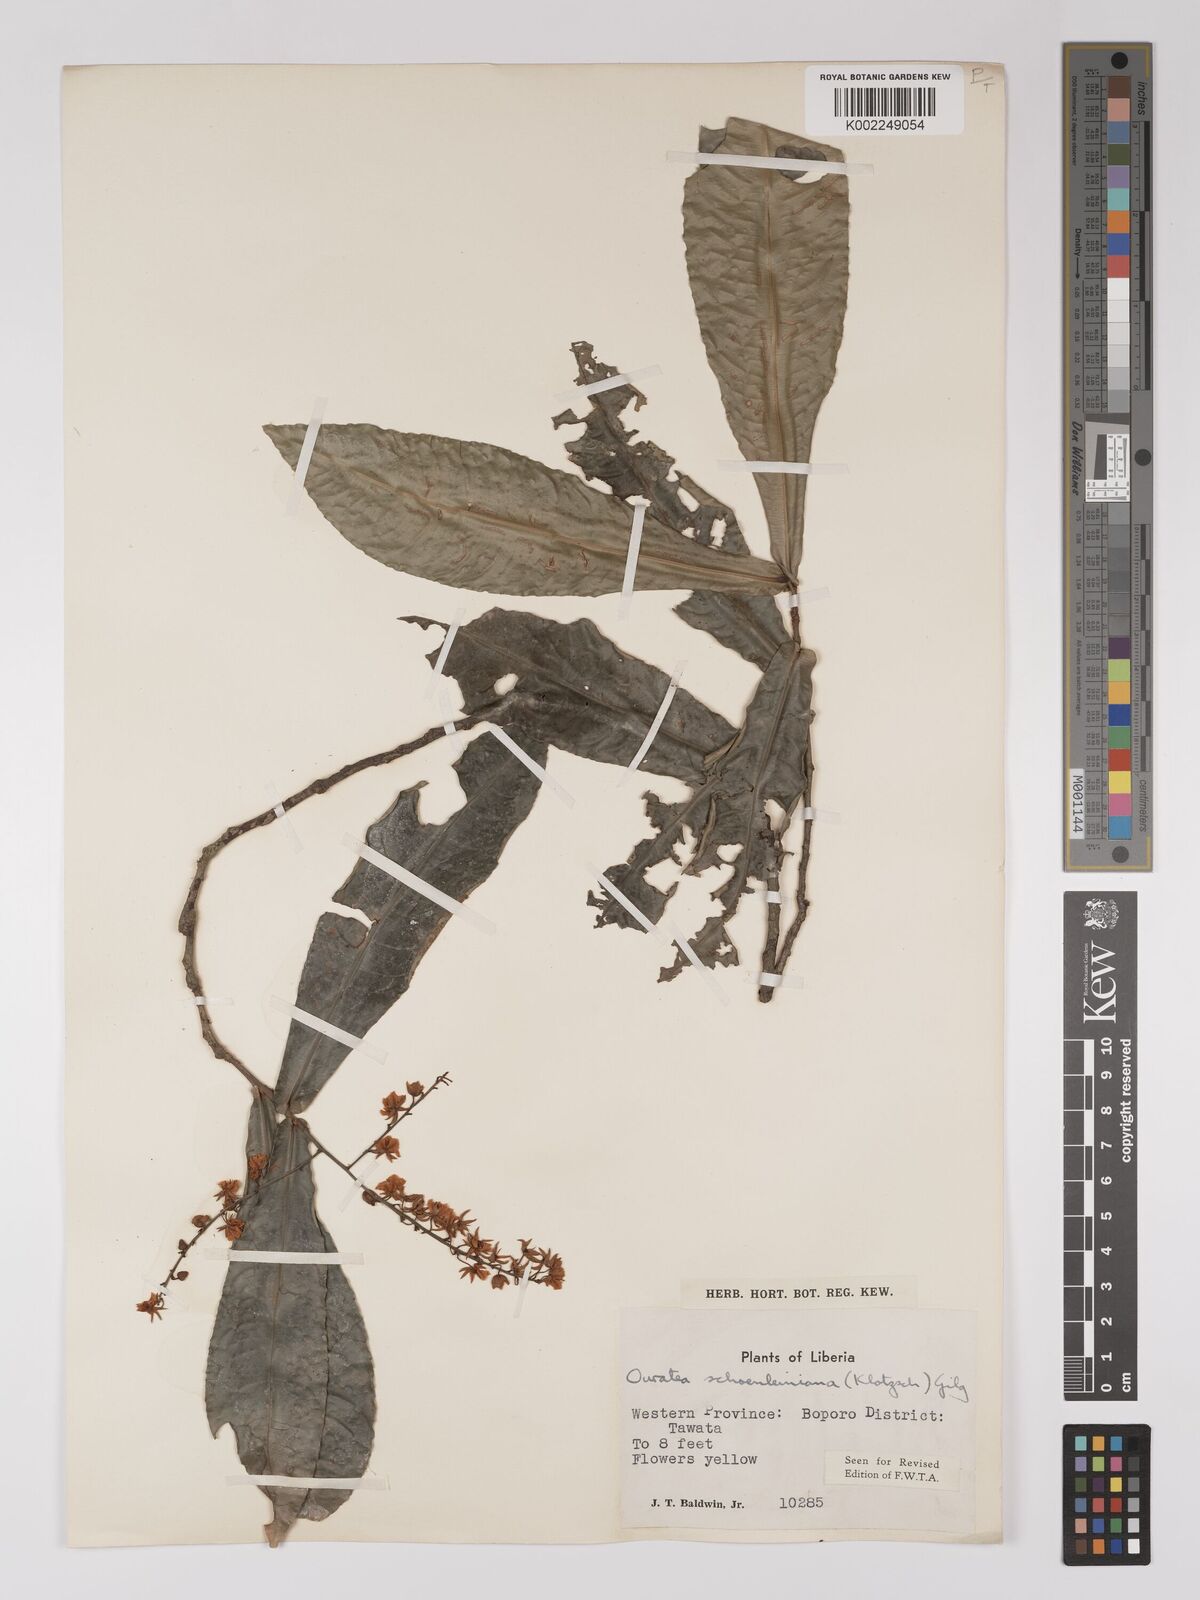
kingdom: Plantae
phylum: Tracheophyta
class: Magnoliopsida
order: Malpighiales
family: Ochnaceae
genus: Campylospermum
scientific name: Campylospermum schoenleinianum
